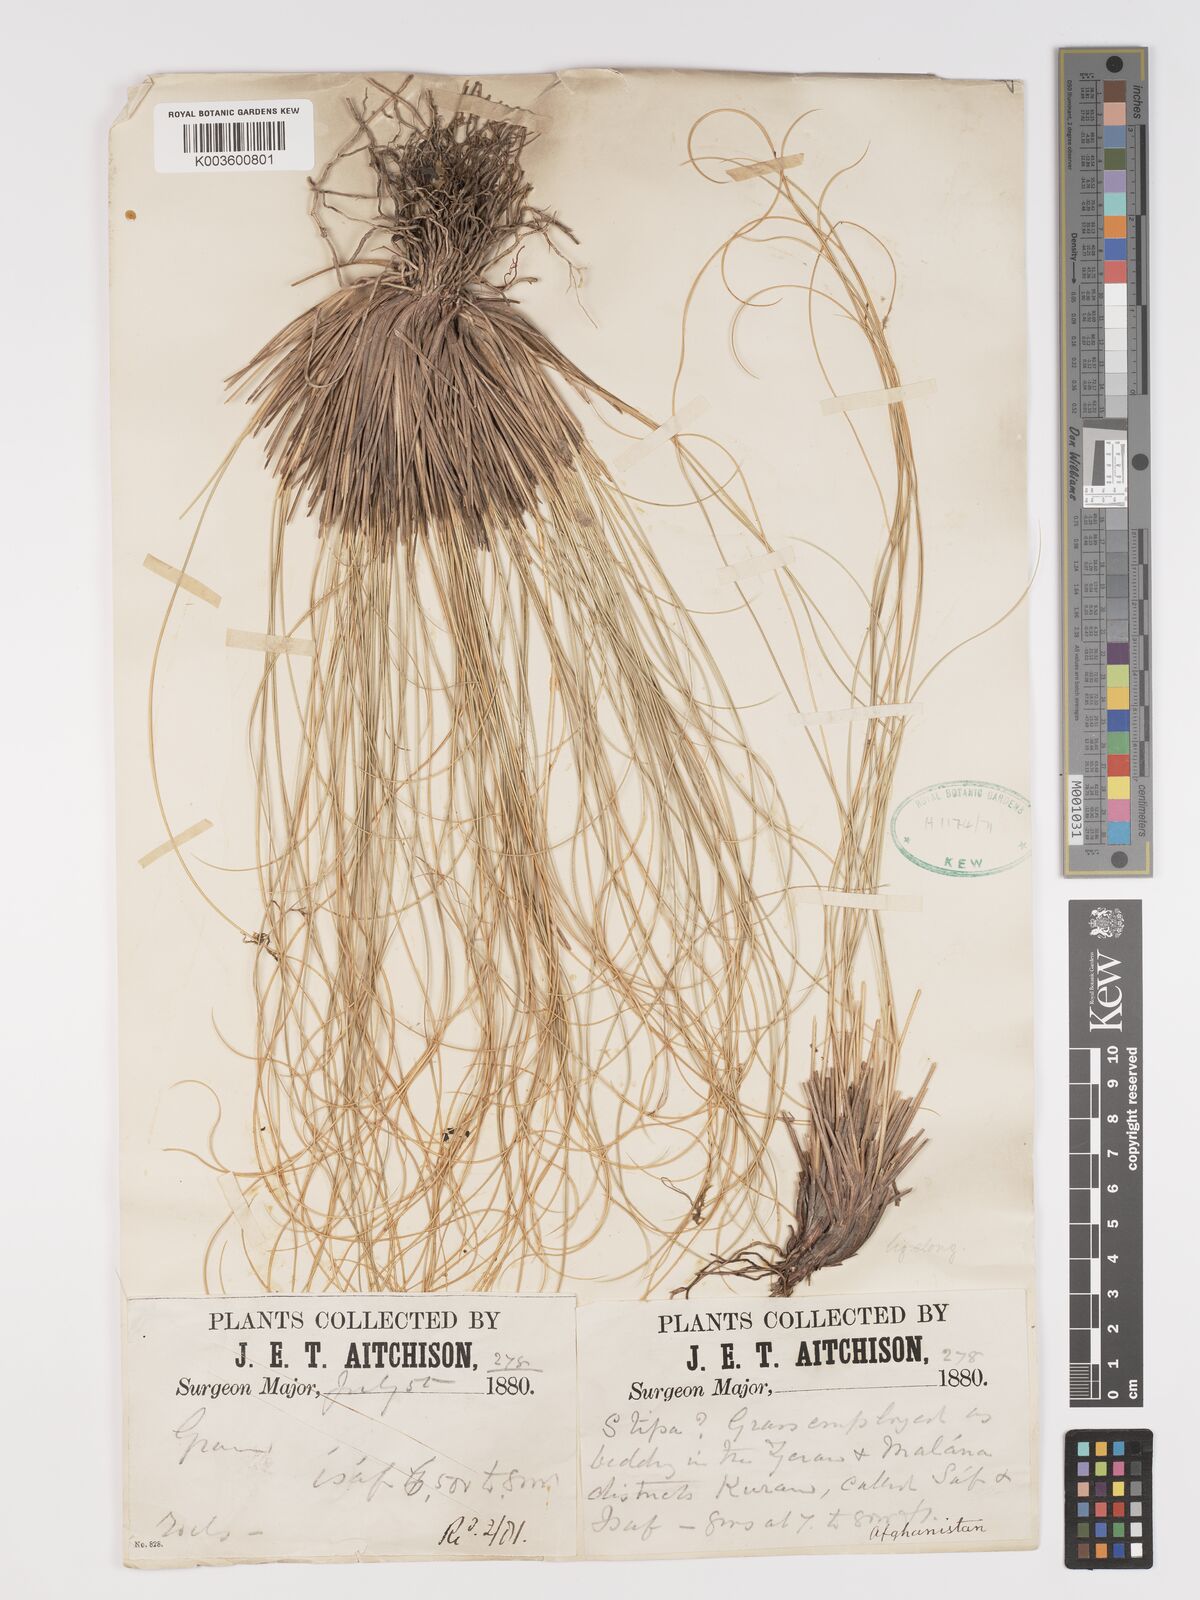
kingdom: Plantae
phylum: Tracheophyta
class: Liliopsida
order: Poales
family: Poaceae
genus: Stipa
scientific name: Stipa
